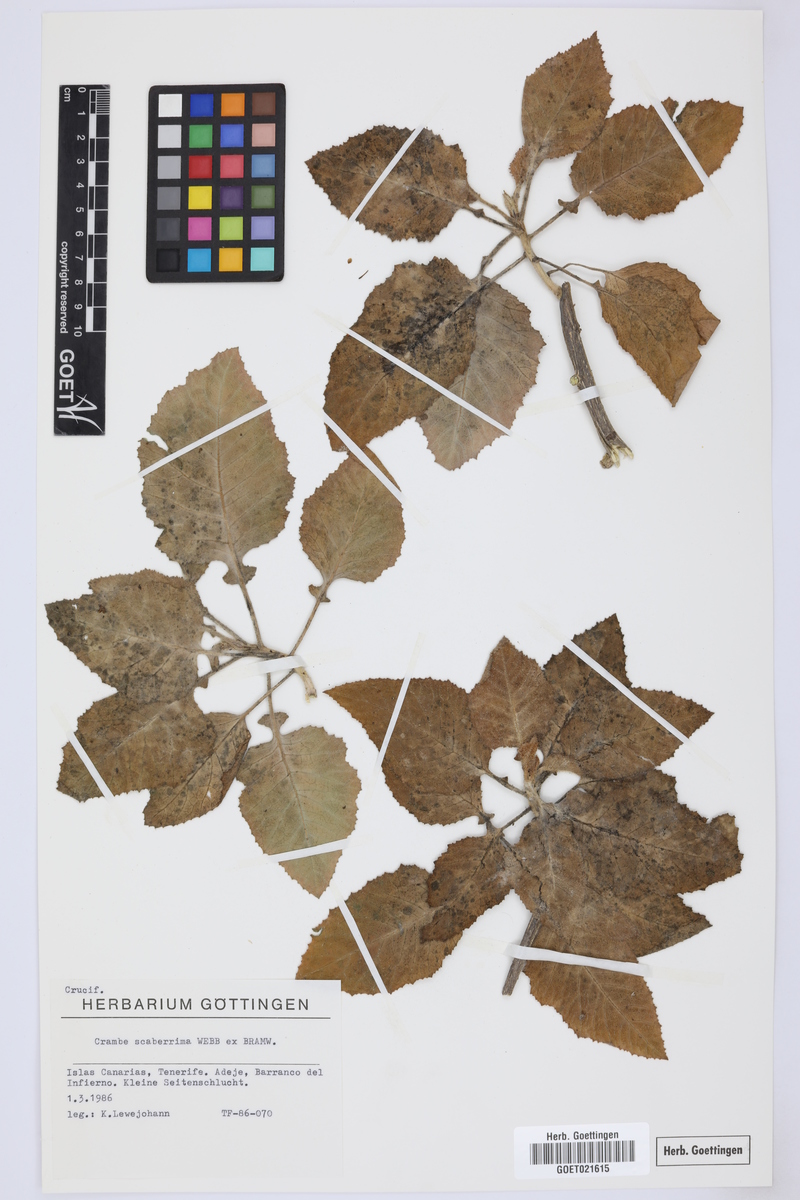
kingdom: Plantae
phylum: Tracheophyta
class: Magnoliopsida
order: Brassicales
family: Brassicaceae
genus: Crambe
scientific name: Crambe scaberrima
